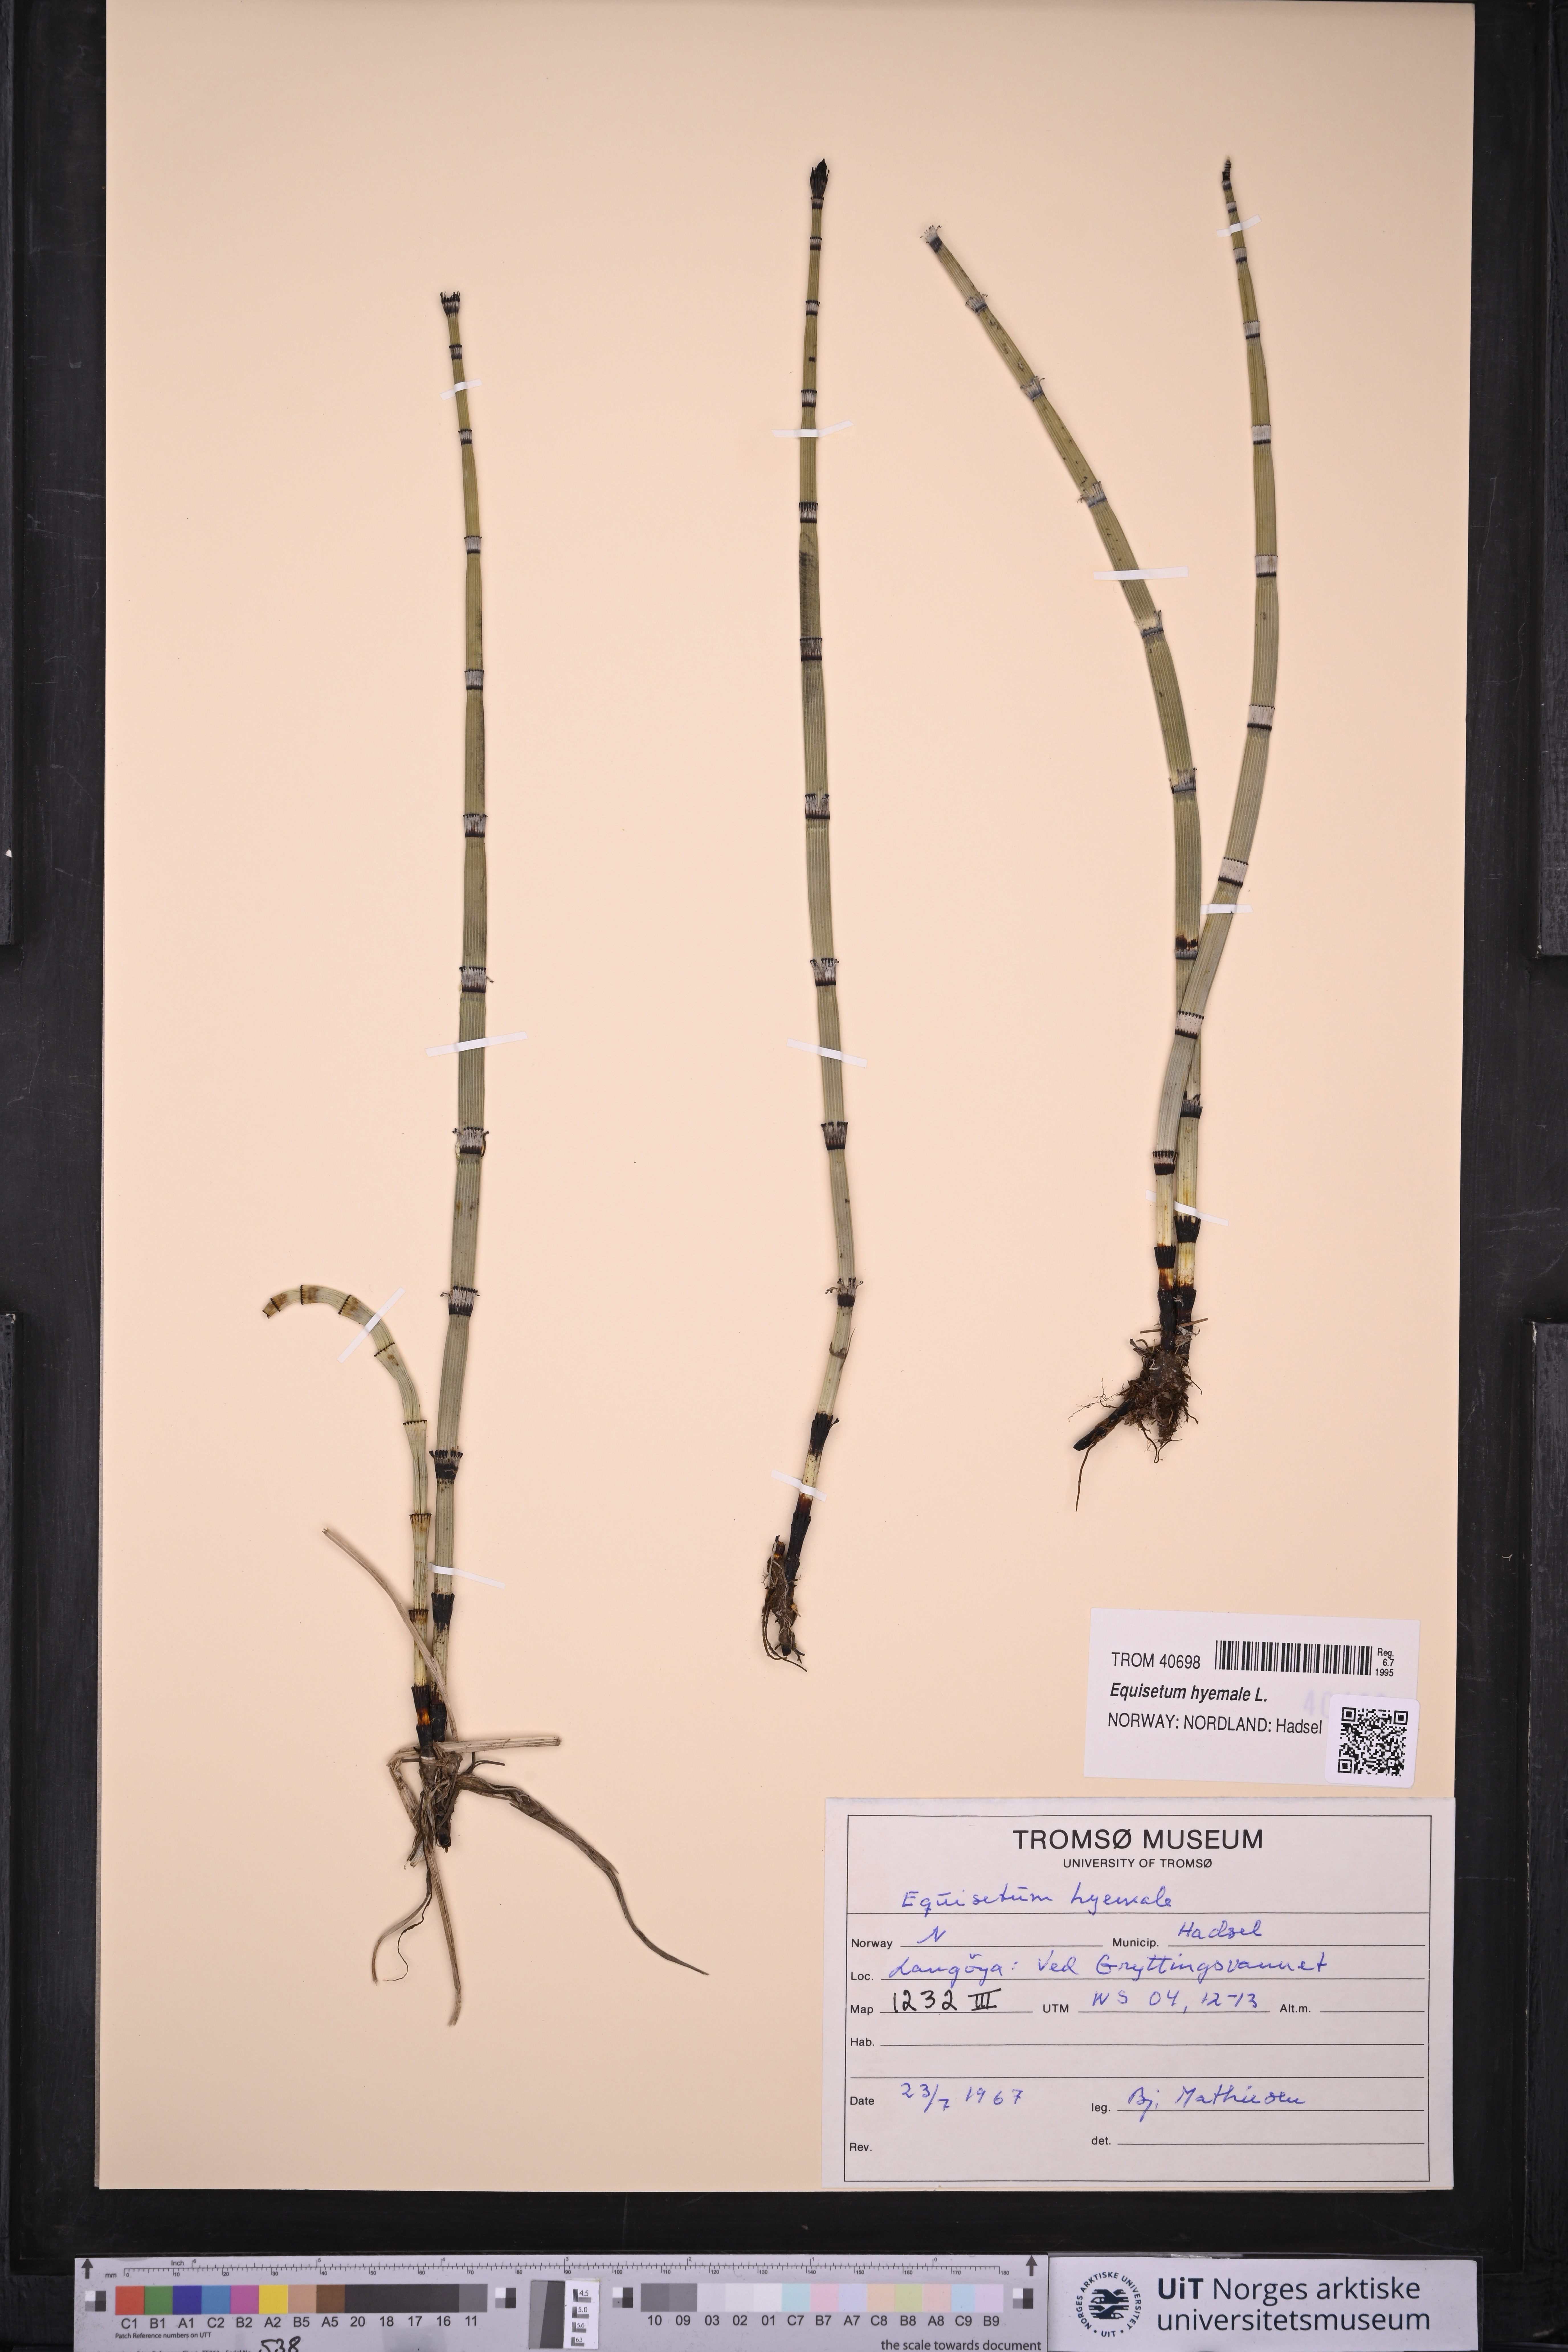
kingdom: Plantae
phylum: Tracheophyta
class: Polypodiopsida
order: Equisetales
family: Equisetaceae
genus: Equisetum
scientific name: Equisetum hyemale
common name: Rough horsetail
